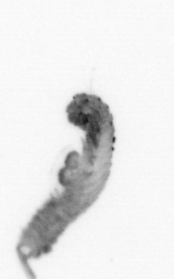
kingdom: Animalia
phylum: Annelida
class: Polychaeta
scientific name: Polychaeta
